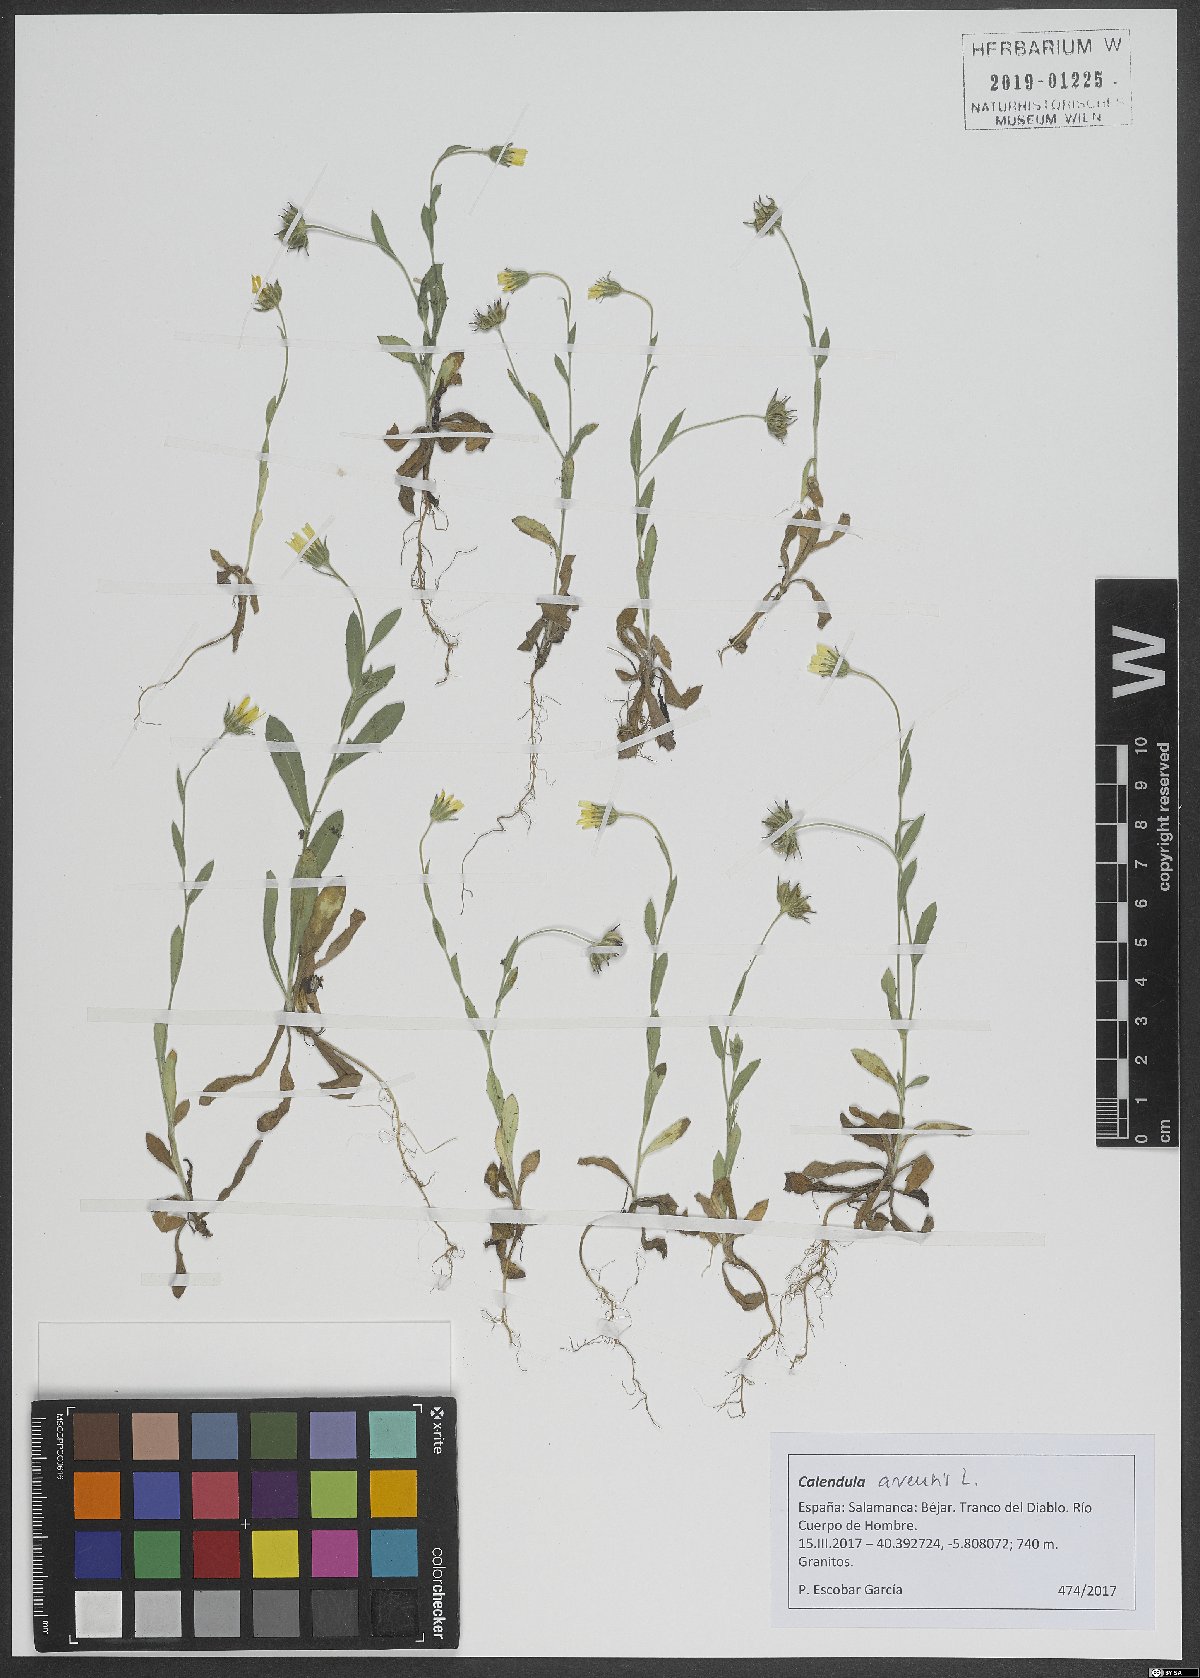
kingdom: Plantae
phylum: Tracheophyta
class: Magnoliopsida
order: Asterales
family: Asteraceae
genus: Calendula
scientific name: Calendula arvensis
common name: Field marigold
